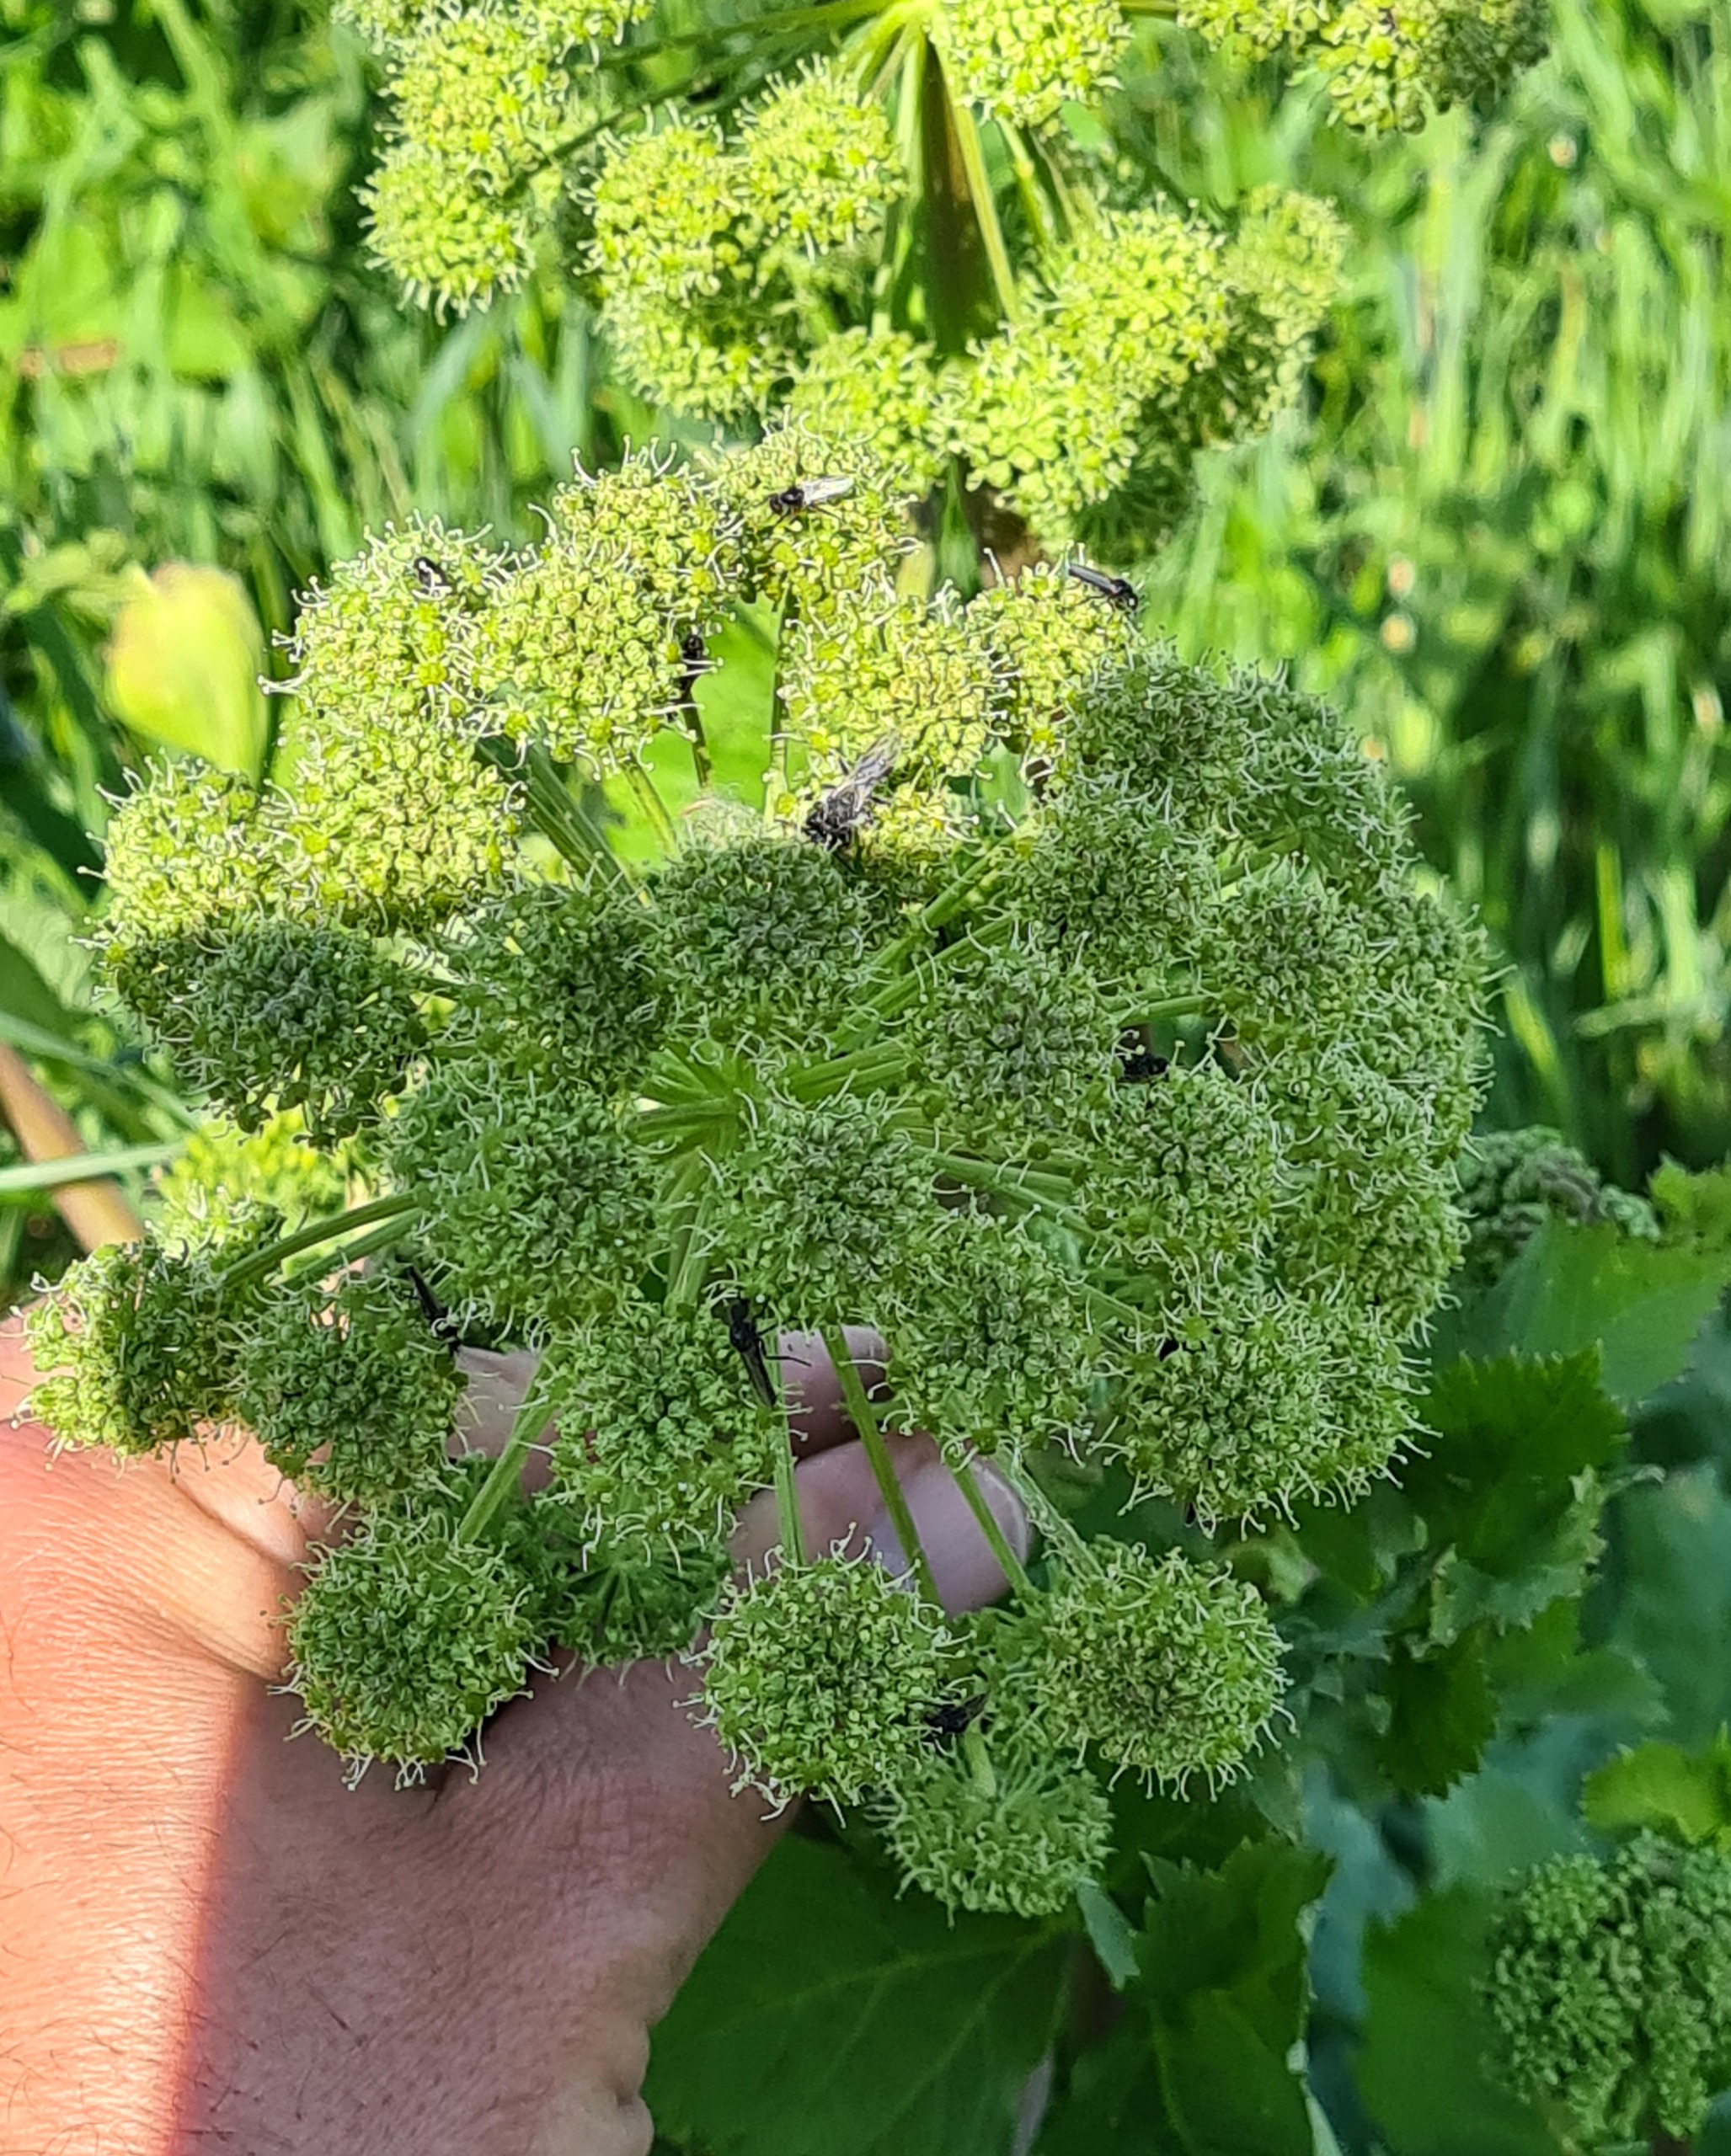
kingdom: Plantae
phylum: Tracheophyta
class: Magnoliopsida
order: Apiales
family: Apiaceae
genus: Angelica
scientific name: Angelica archangelica
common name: Fjeld-kvan
